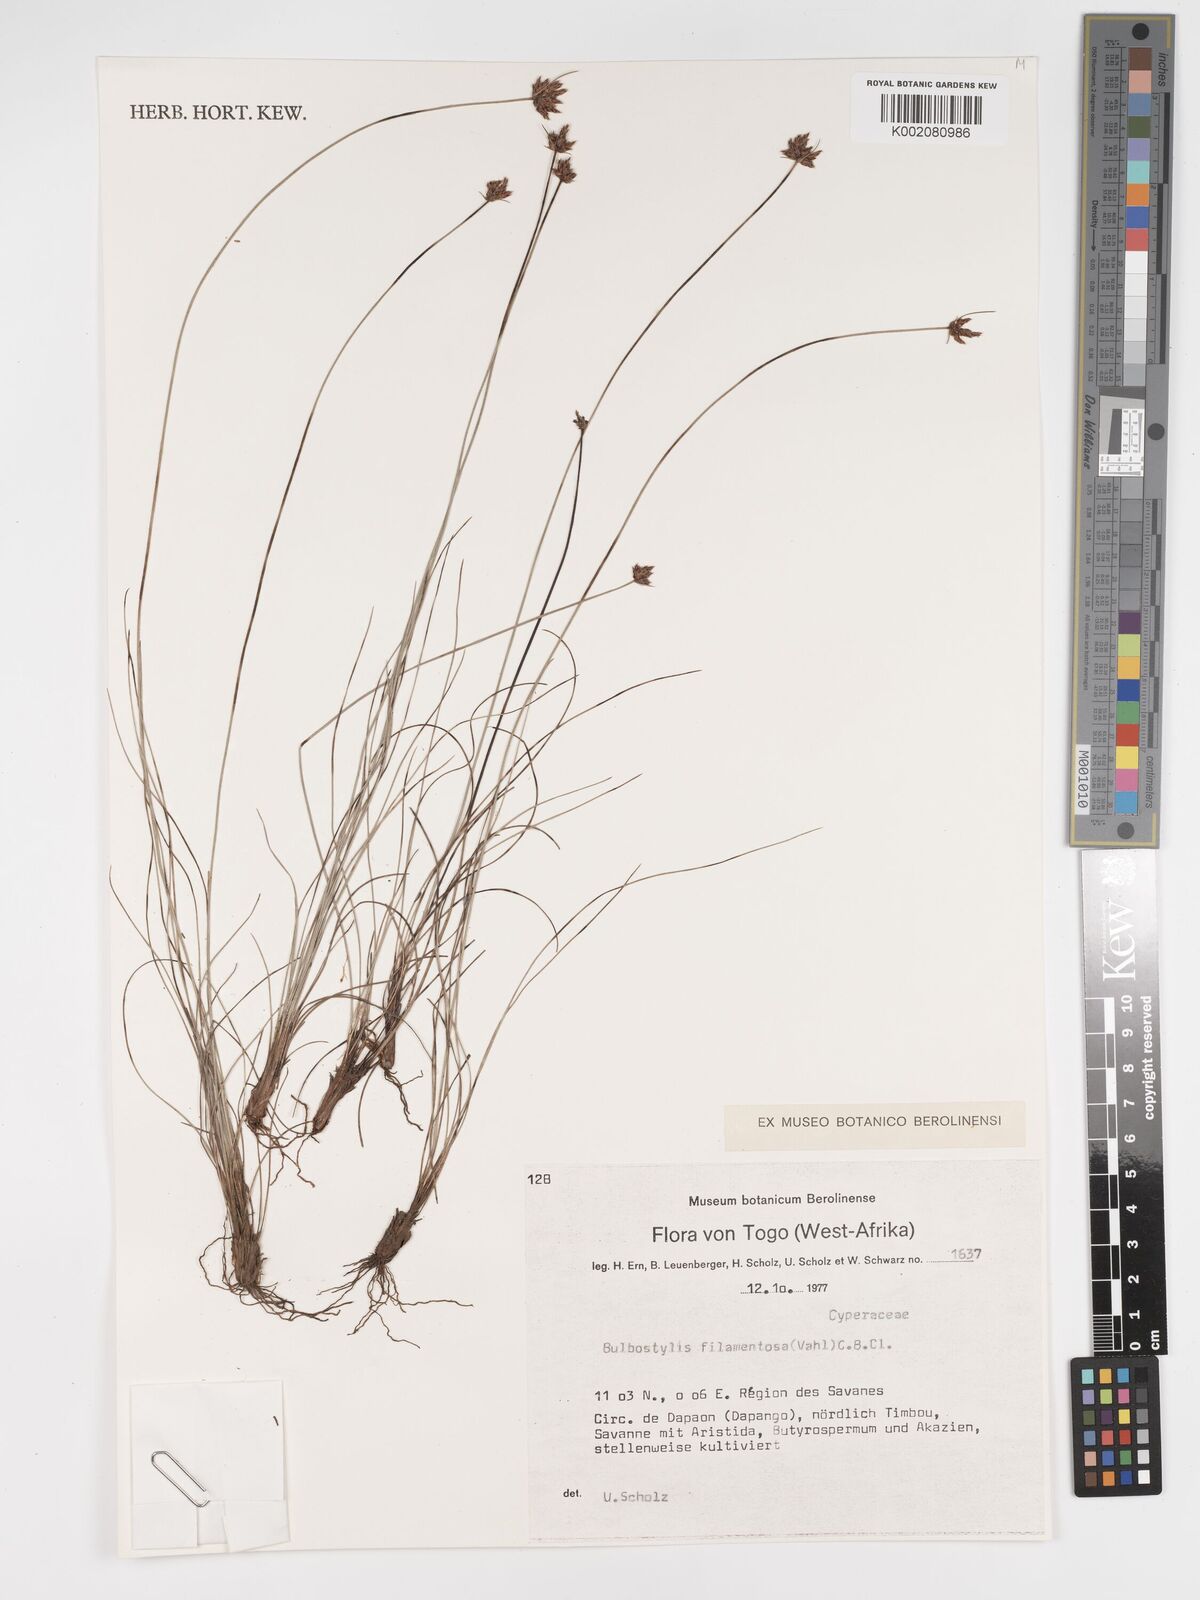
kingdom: Plantae
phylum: Tracheophyta
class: Liliopsida
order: Poales
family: Cyperaceae
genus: Bulbostylis
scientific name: Bulbostylis filamentosa
